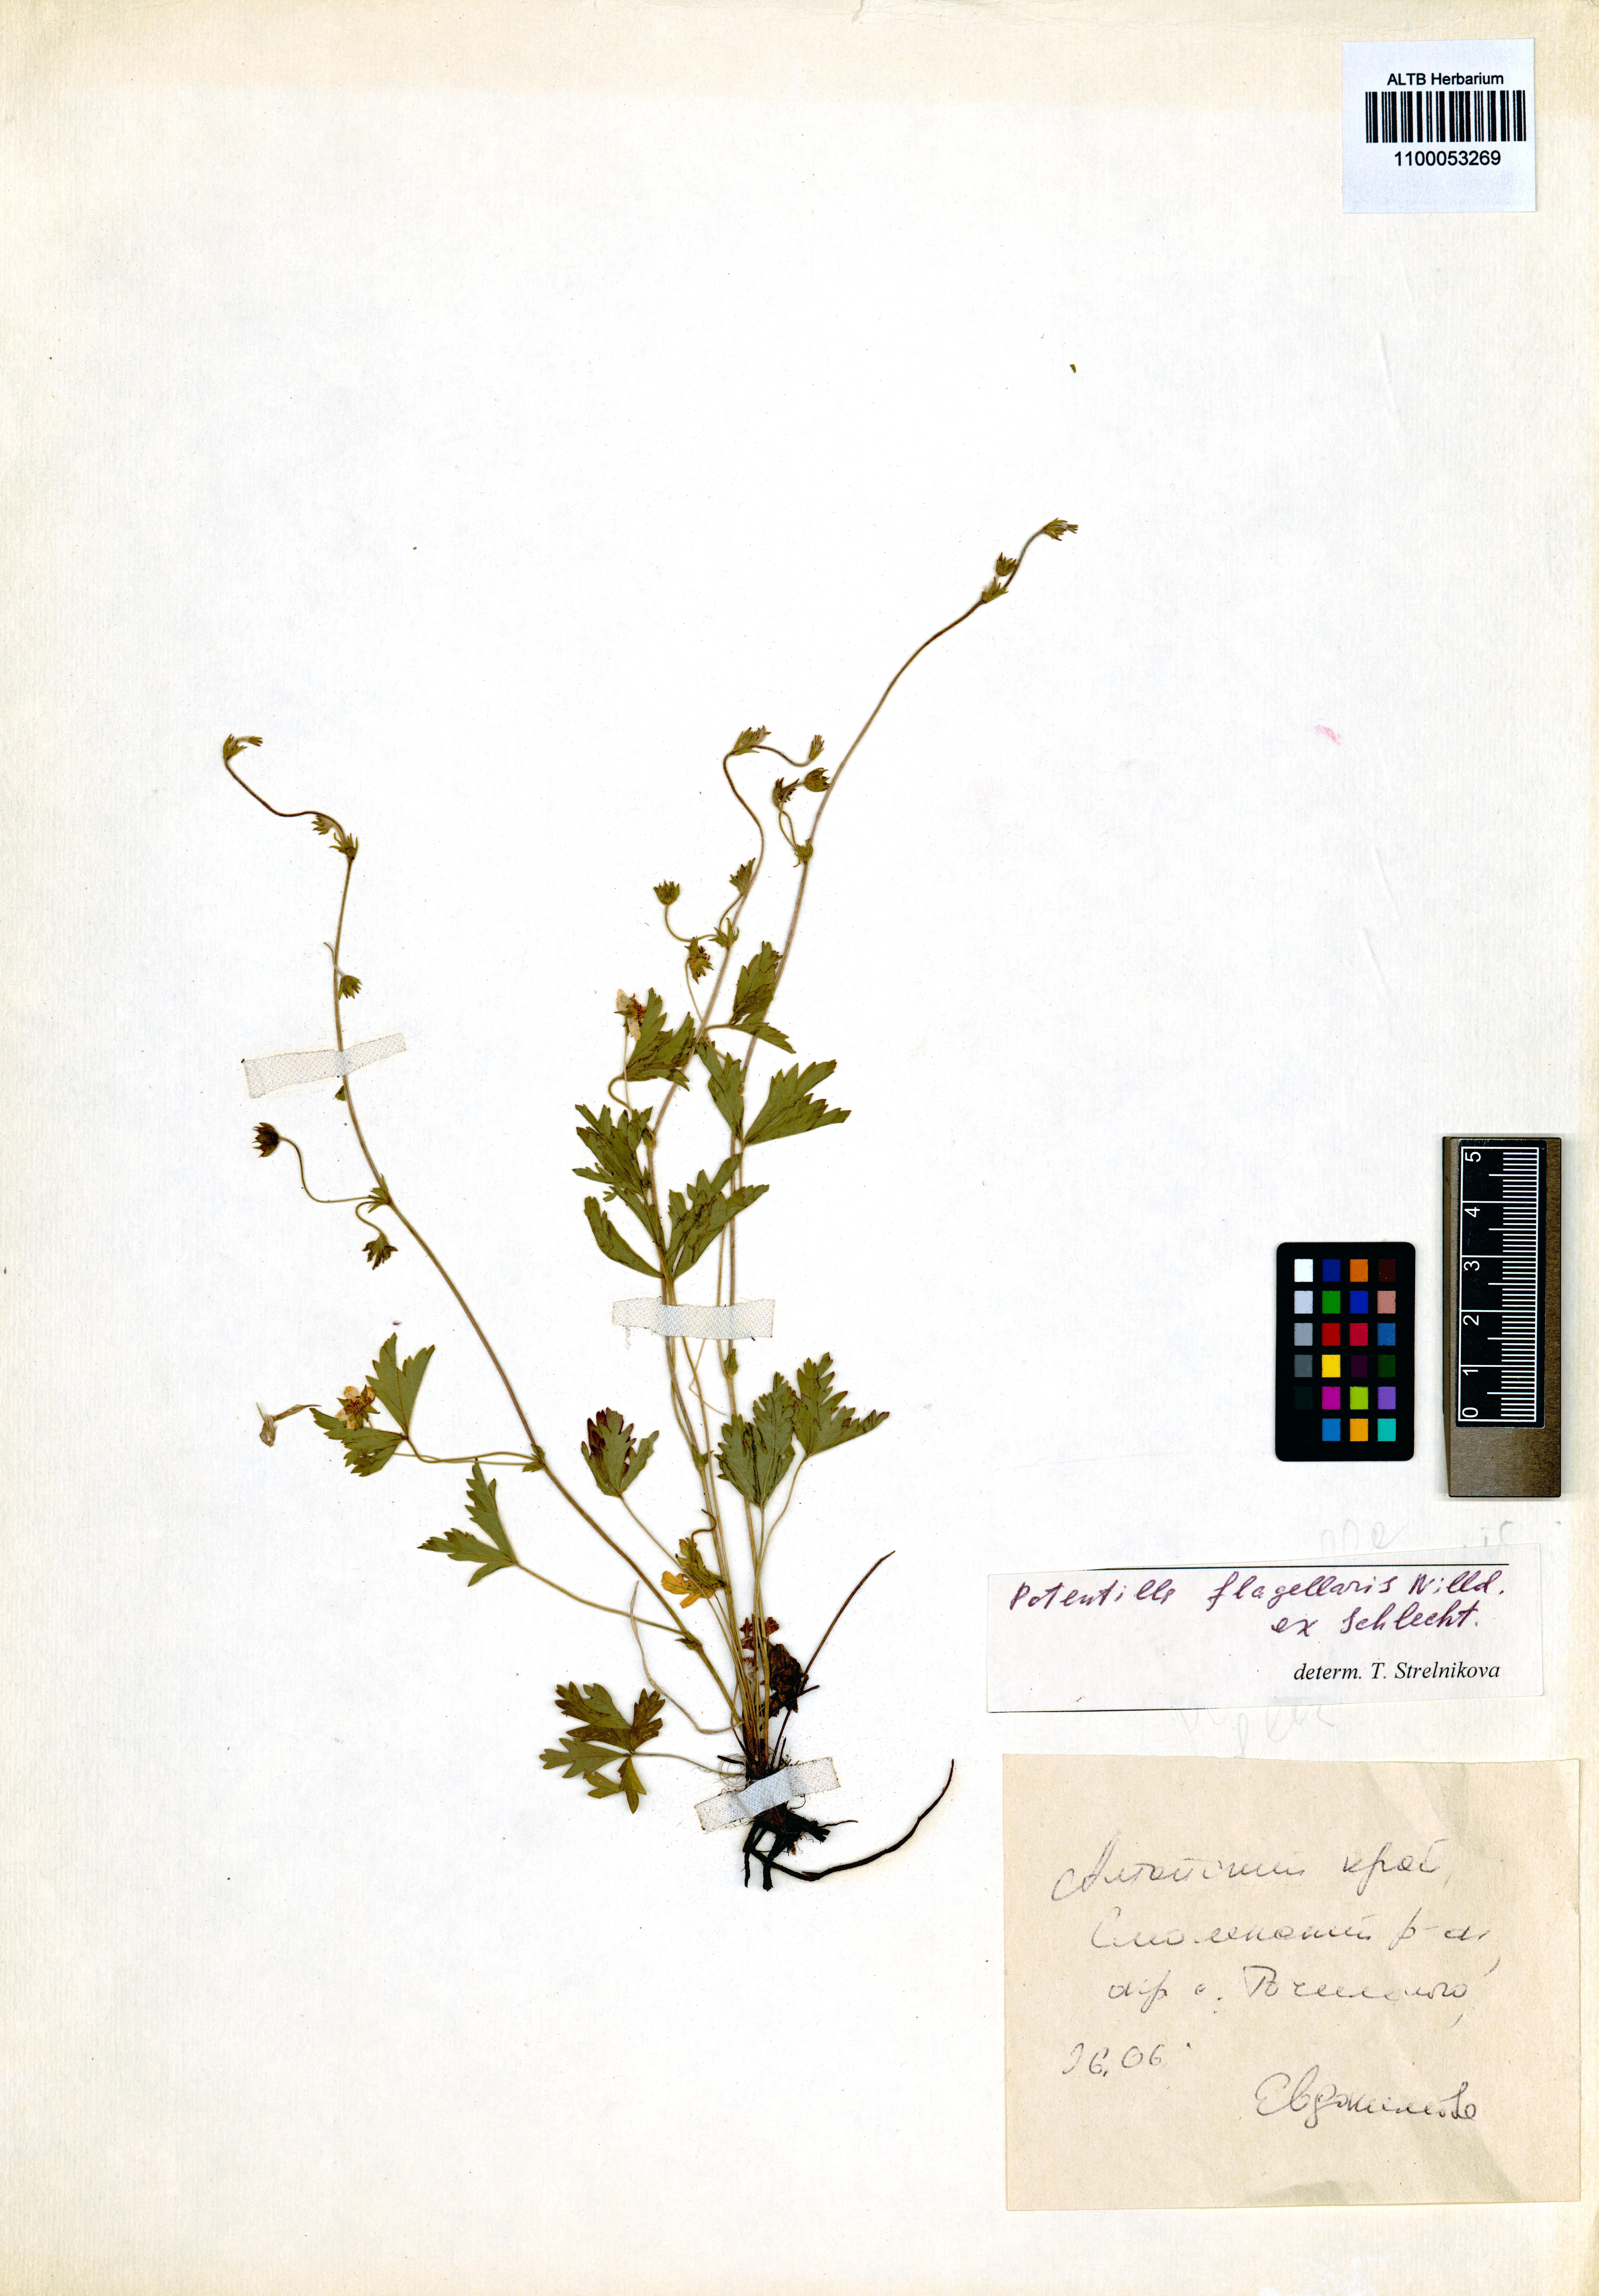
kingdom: Plantae
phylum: Tracheophyta
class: Magnoliopsida
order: Rosales
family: Rosaceae
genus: Potentilla
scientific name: Potentilla flagellaris
